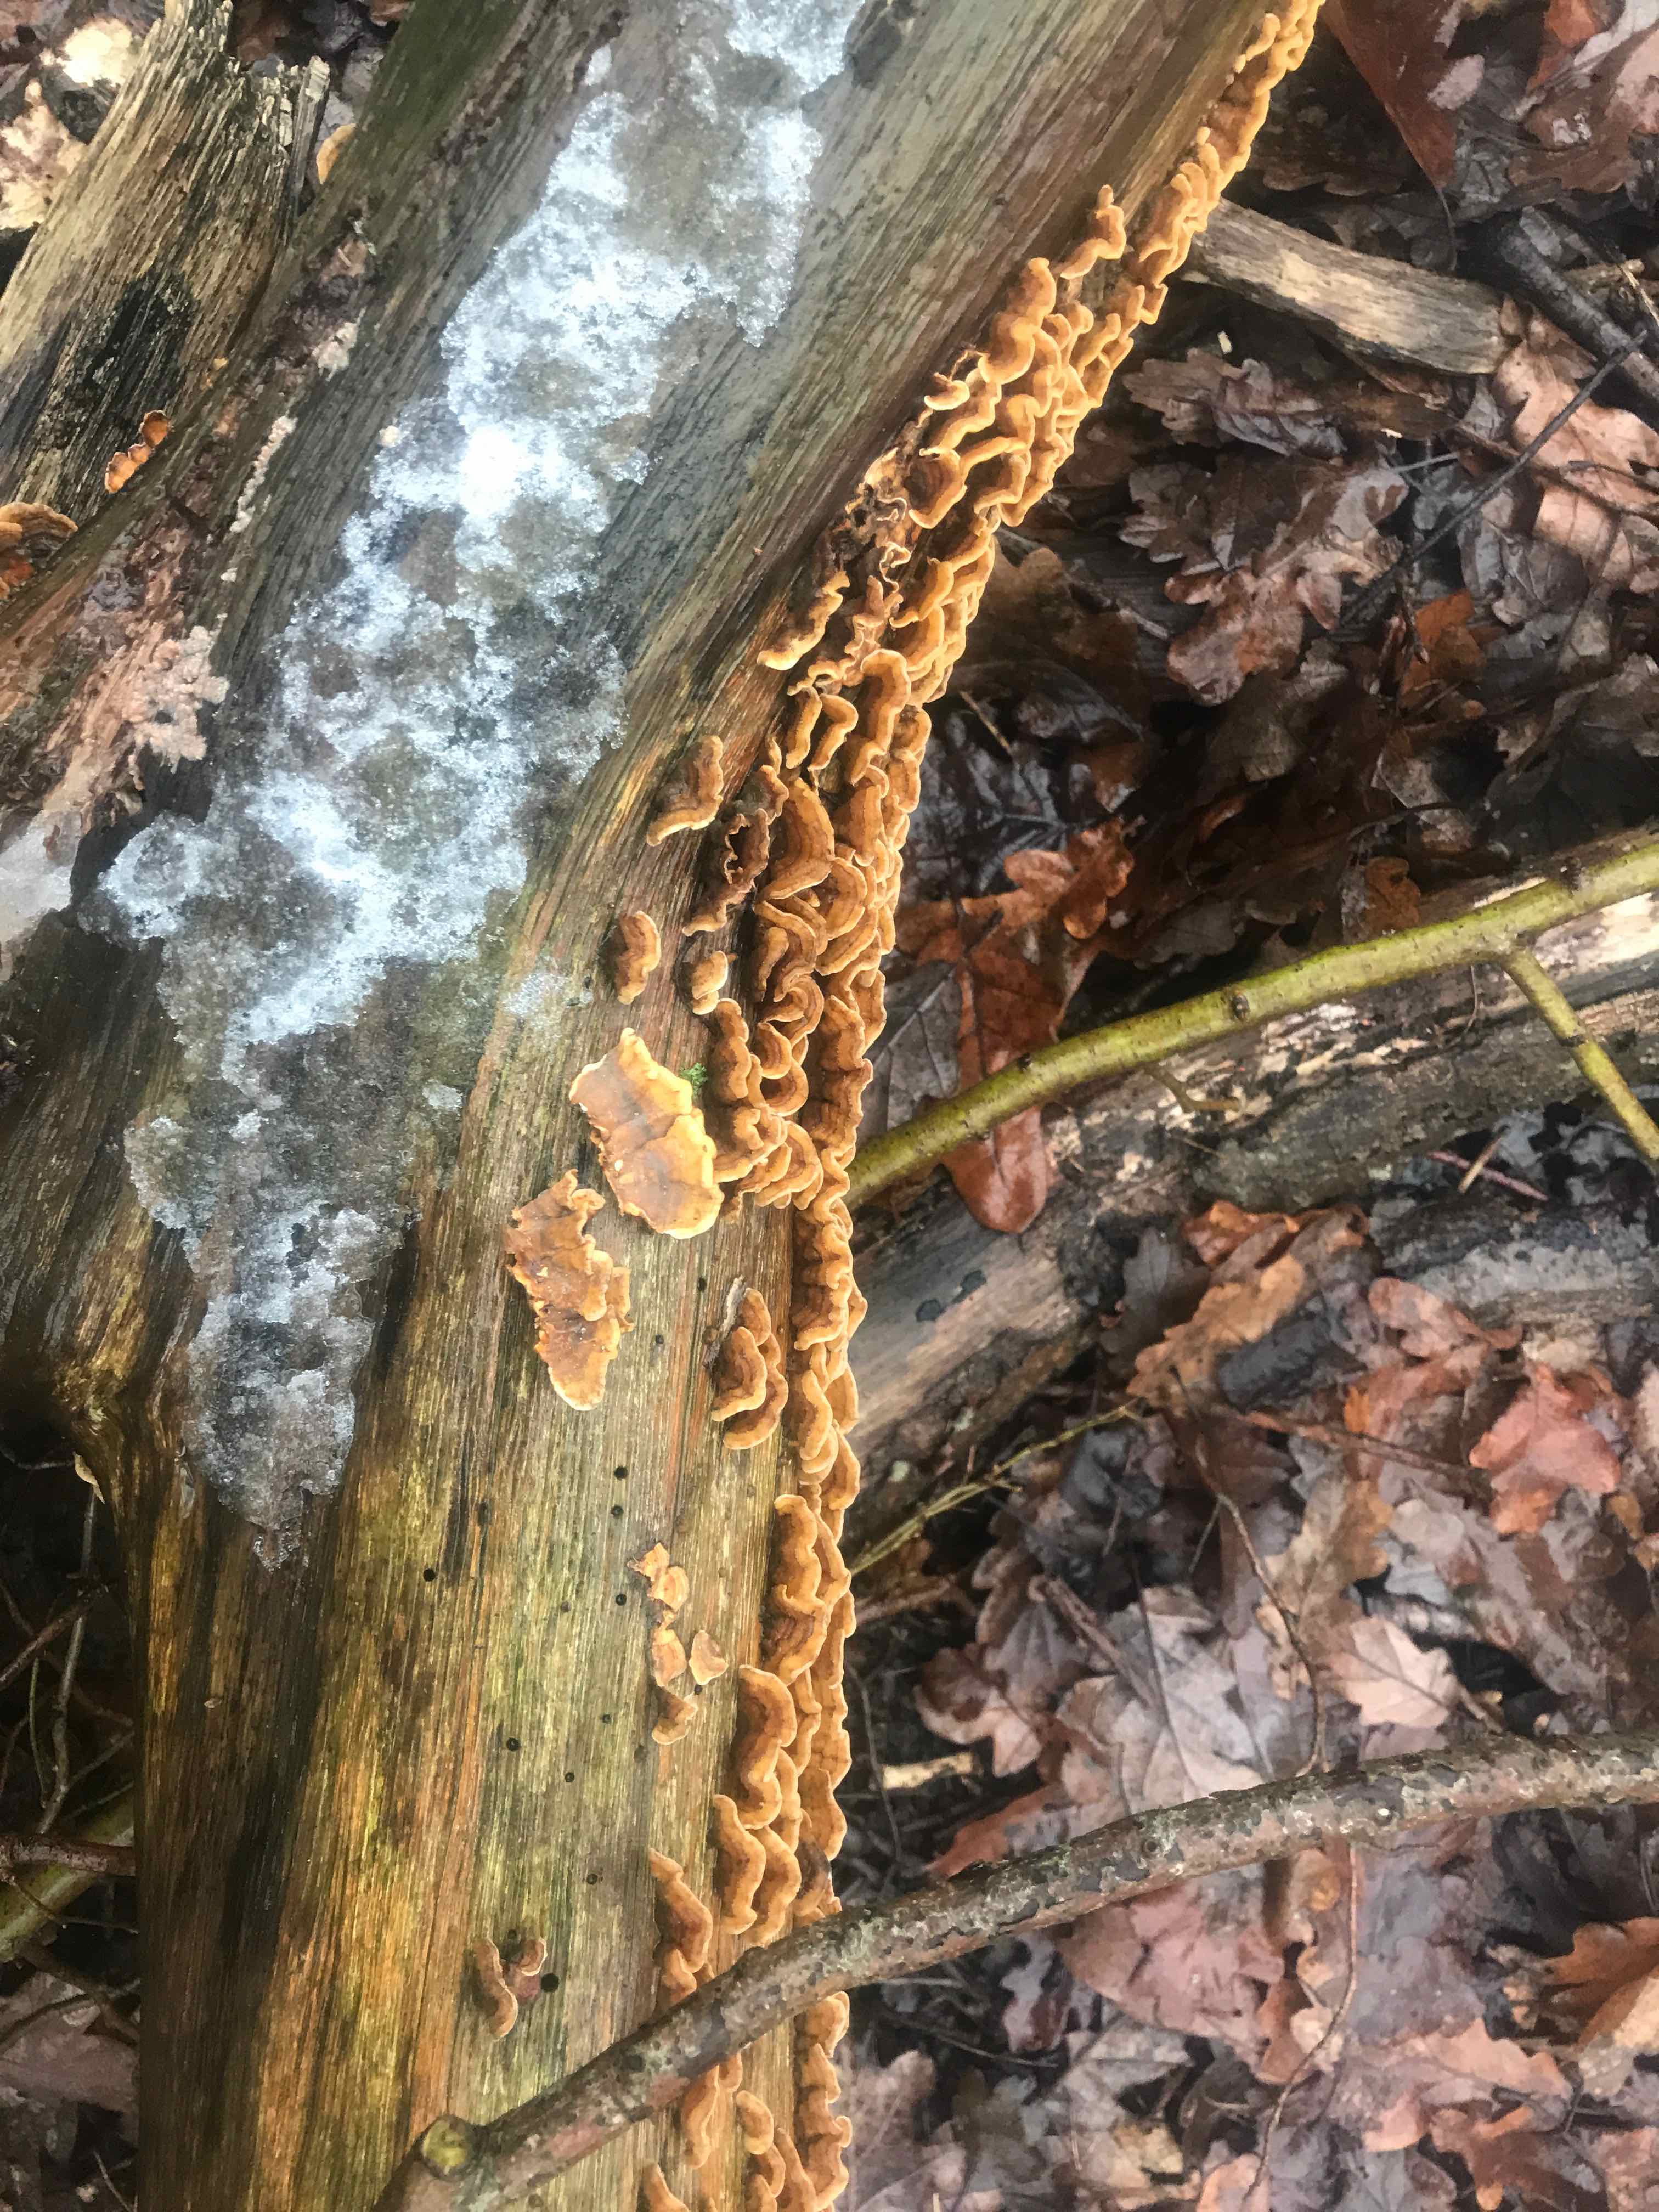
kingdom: Fungi
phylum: Basidiomycota
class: Agaricomycetes
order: Russulales
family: Stereaceae
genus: Stereum
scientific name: Stereum hirsutum
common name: håret lædersvamp
